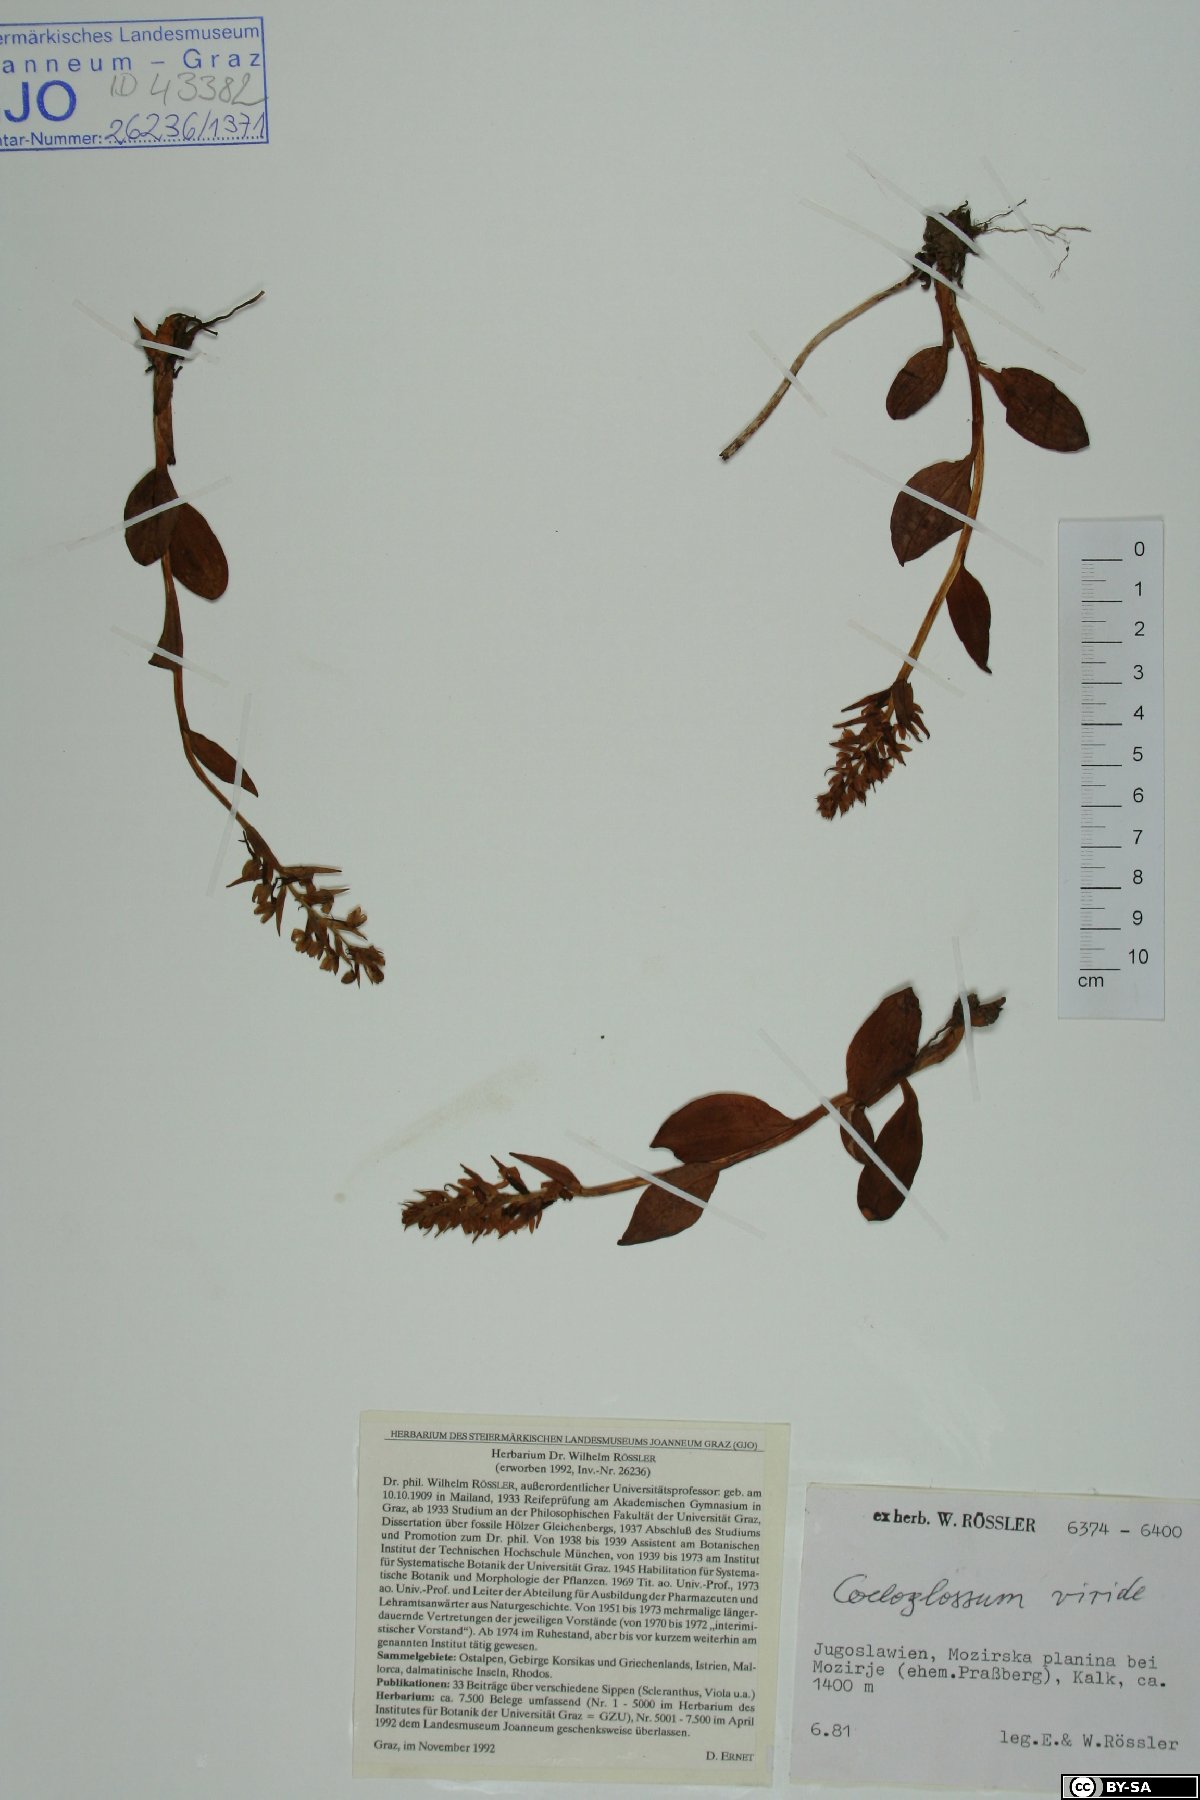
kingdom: Plantae
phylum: Tracheophyta
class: Liliopsida
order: Asparagales
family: Orchidaceae
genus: Dactylorhiza
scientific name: Dactylorhiza viridis
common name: Longbract frog orchid
